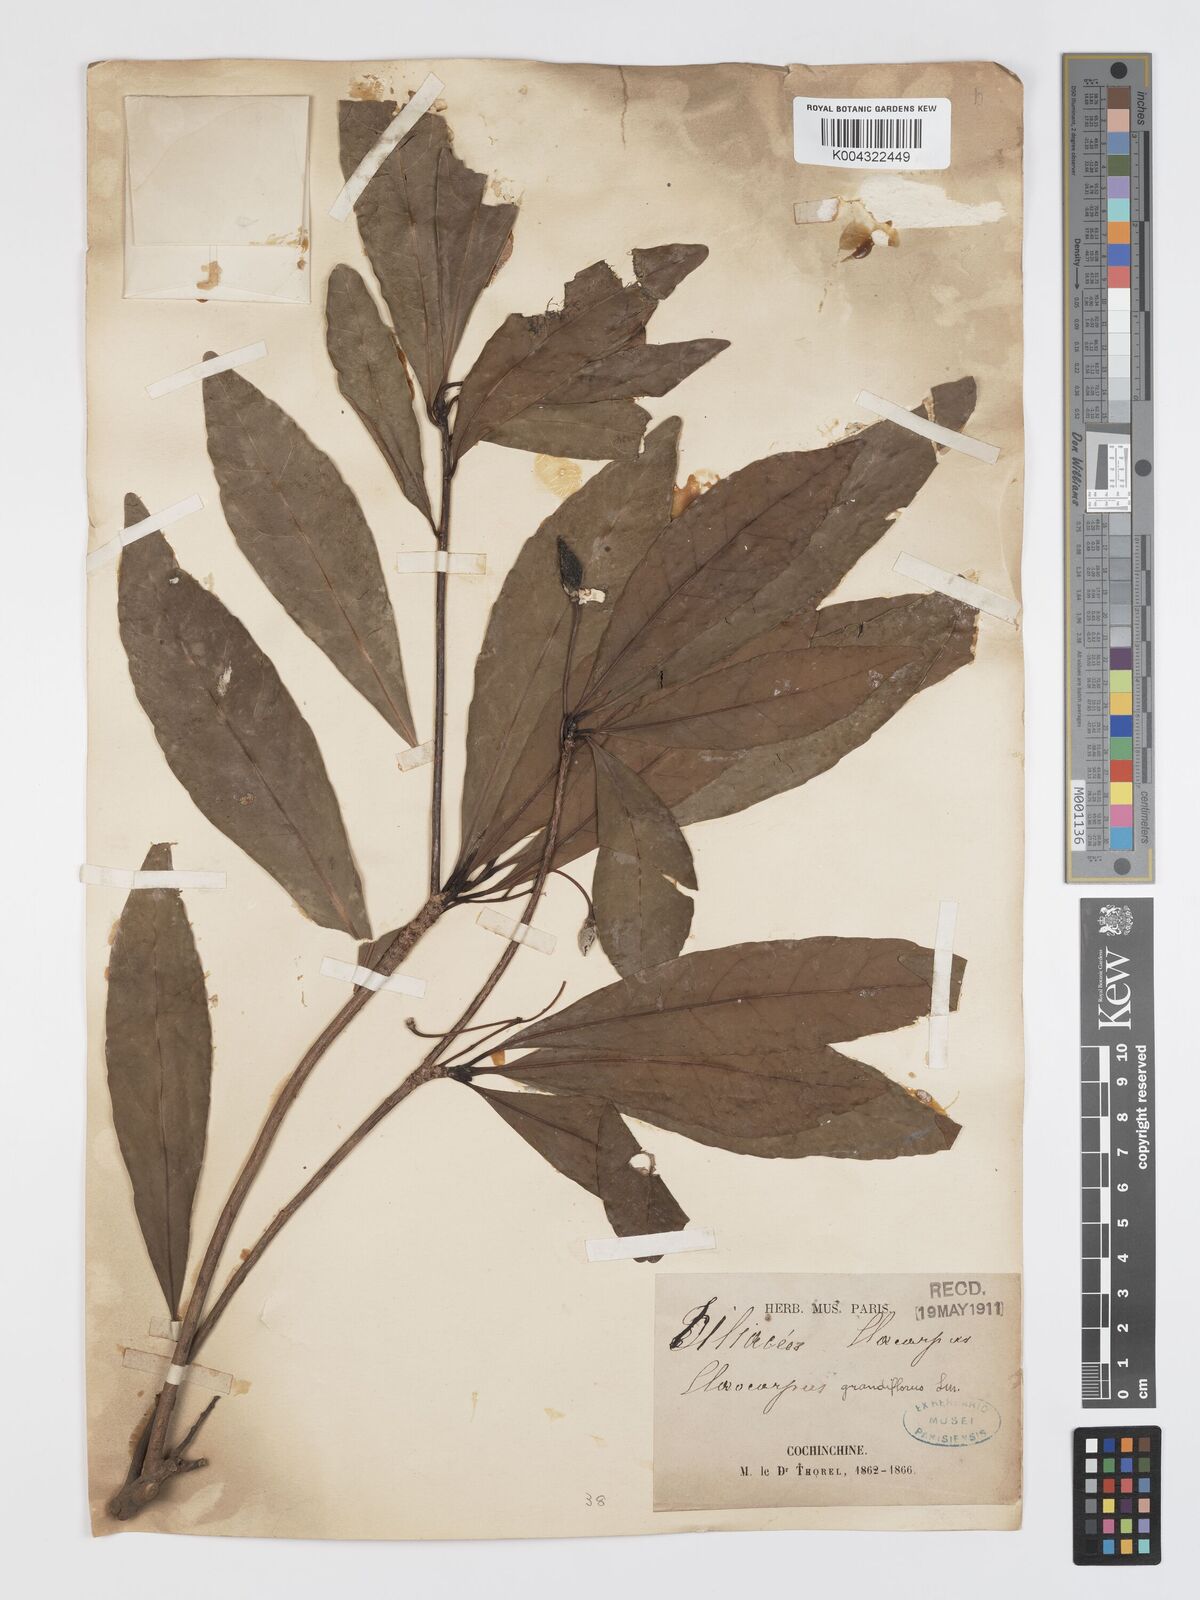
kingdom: Plantae
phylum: Tracheophyta
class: Magnoliopsida
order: Oxalidales
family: Elaeocarpaceae
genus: Elaeocarpus
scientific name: Elaeocarpus grandiflorus
